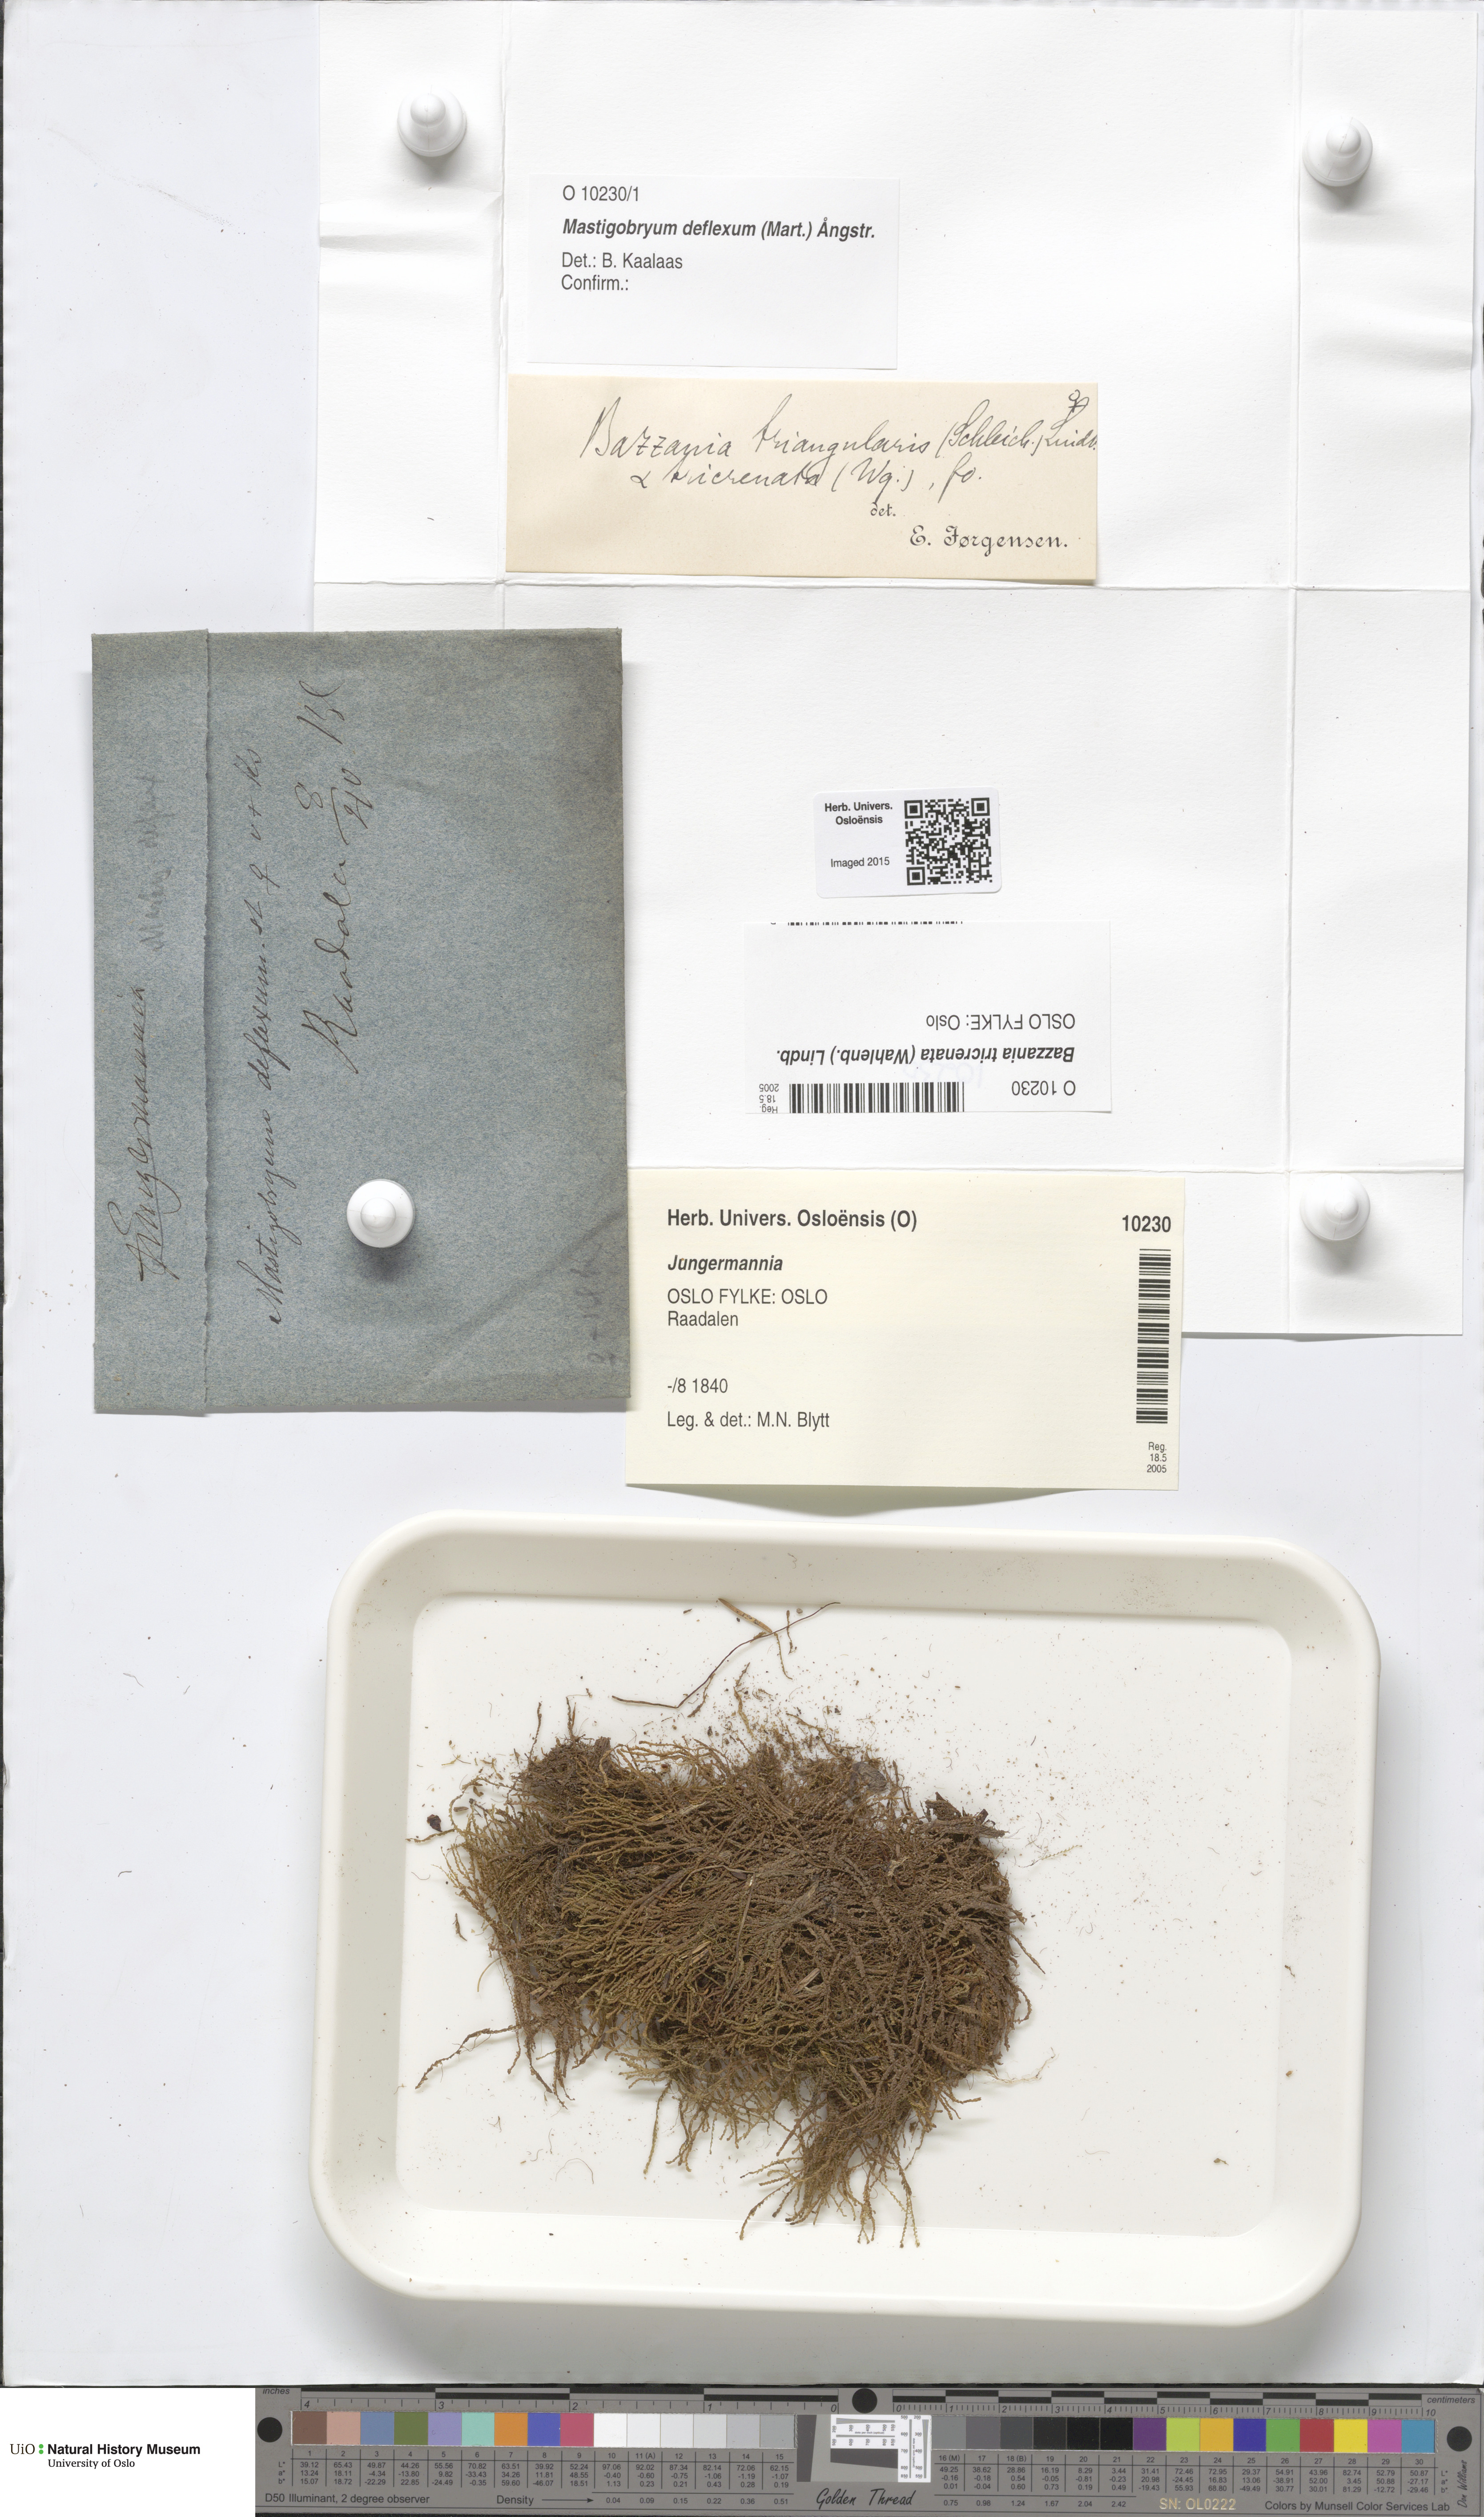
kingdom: Plantae
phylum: Marchantiophyta
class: Jungermanniopsida
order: Jungermanniales
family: Lepidoziaceae
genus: Bazzania
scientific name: Bazzania tricrenata
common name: Lesser whipwort
